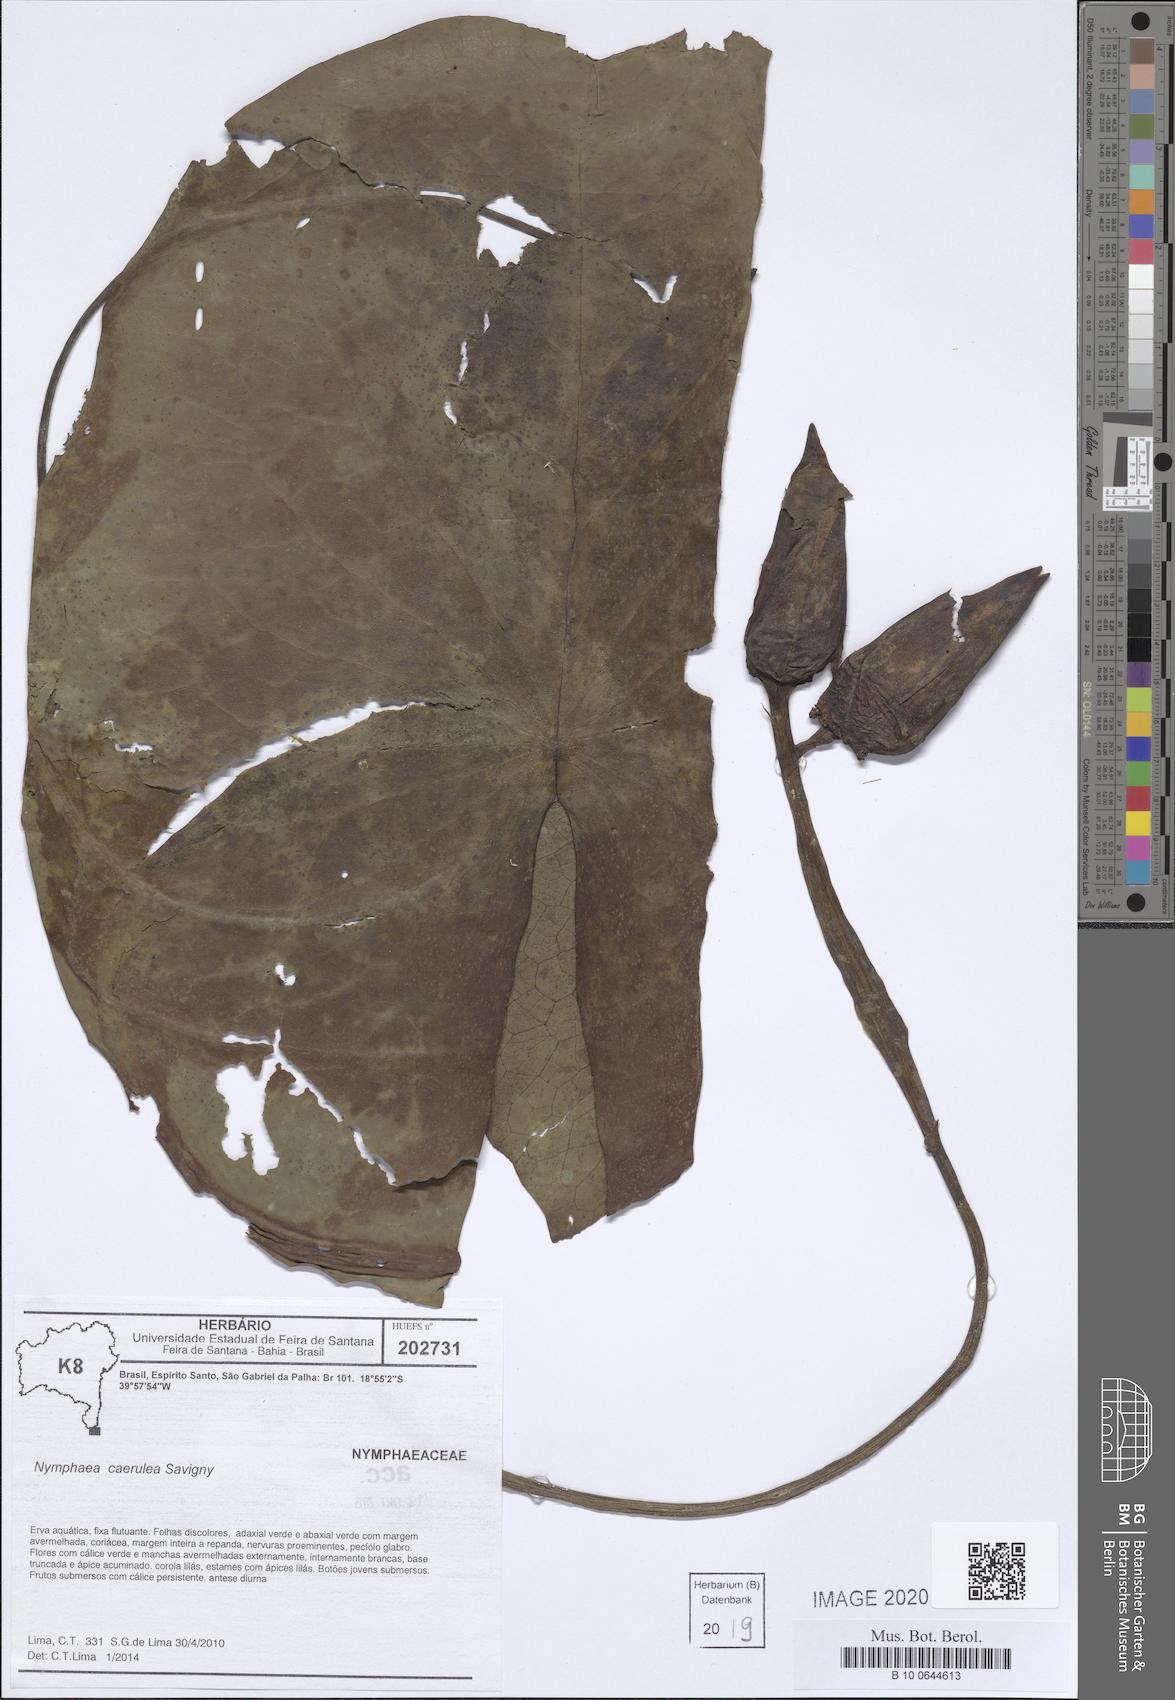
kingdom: Plantae
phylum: Tracheophyta
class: Magnoliopsida
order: Nymphaeales
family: Nymphaeaceae
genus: Nymphaea
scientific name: Nymphaea
